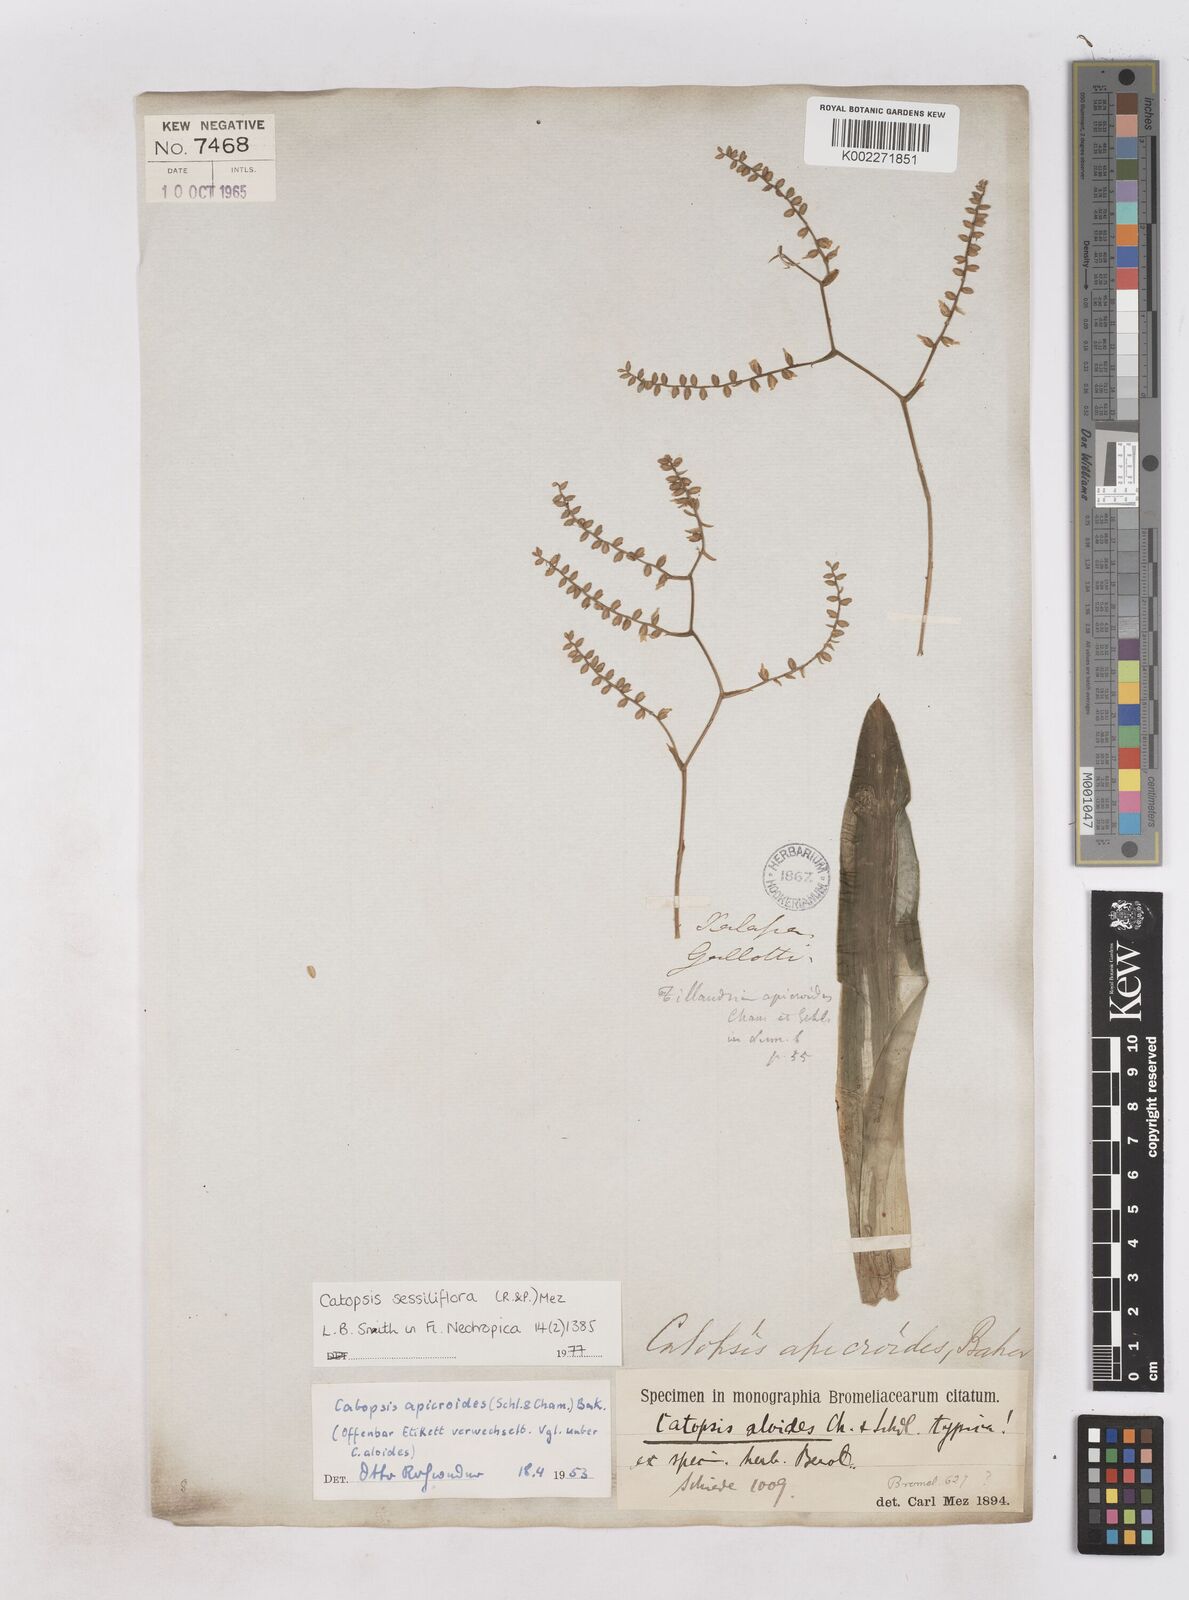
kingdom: Plantae
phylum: Tracheophyta
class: Liliopsida
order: Poales
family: Bromeliaceae
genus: Catopsis
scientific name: Catopsis sessiliflora
